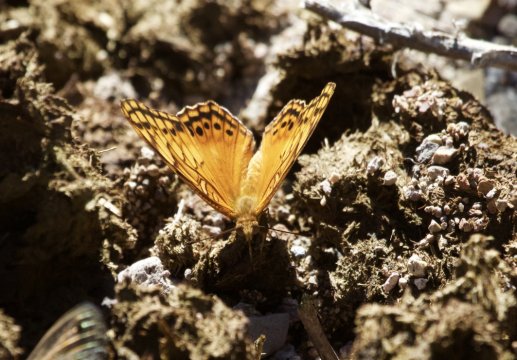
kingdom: Animalia
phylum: Arthropoda
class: Insecta
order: Lepidoptera
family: Nymphalidae
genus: Euptoieta
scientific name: Euptoieta hegesia
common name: Mexican Fritillary
